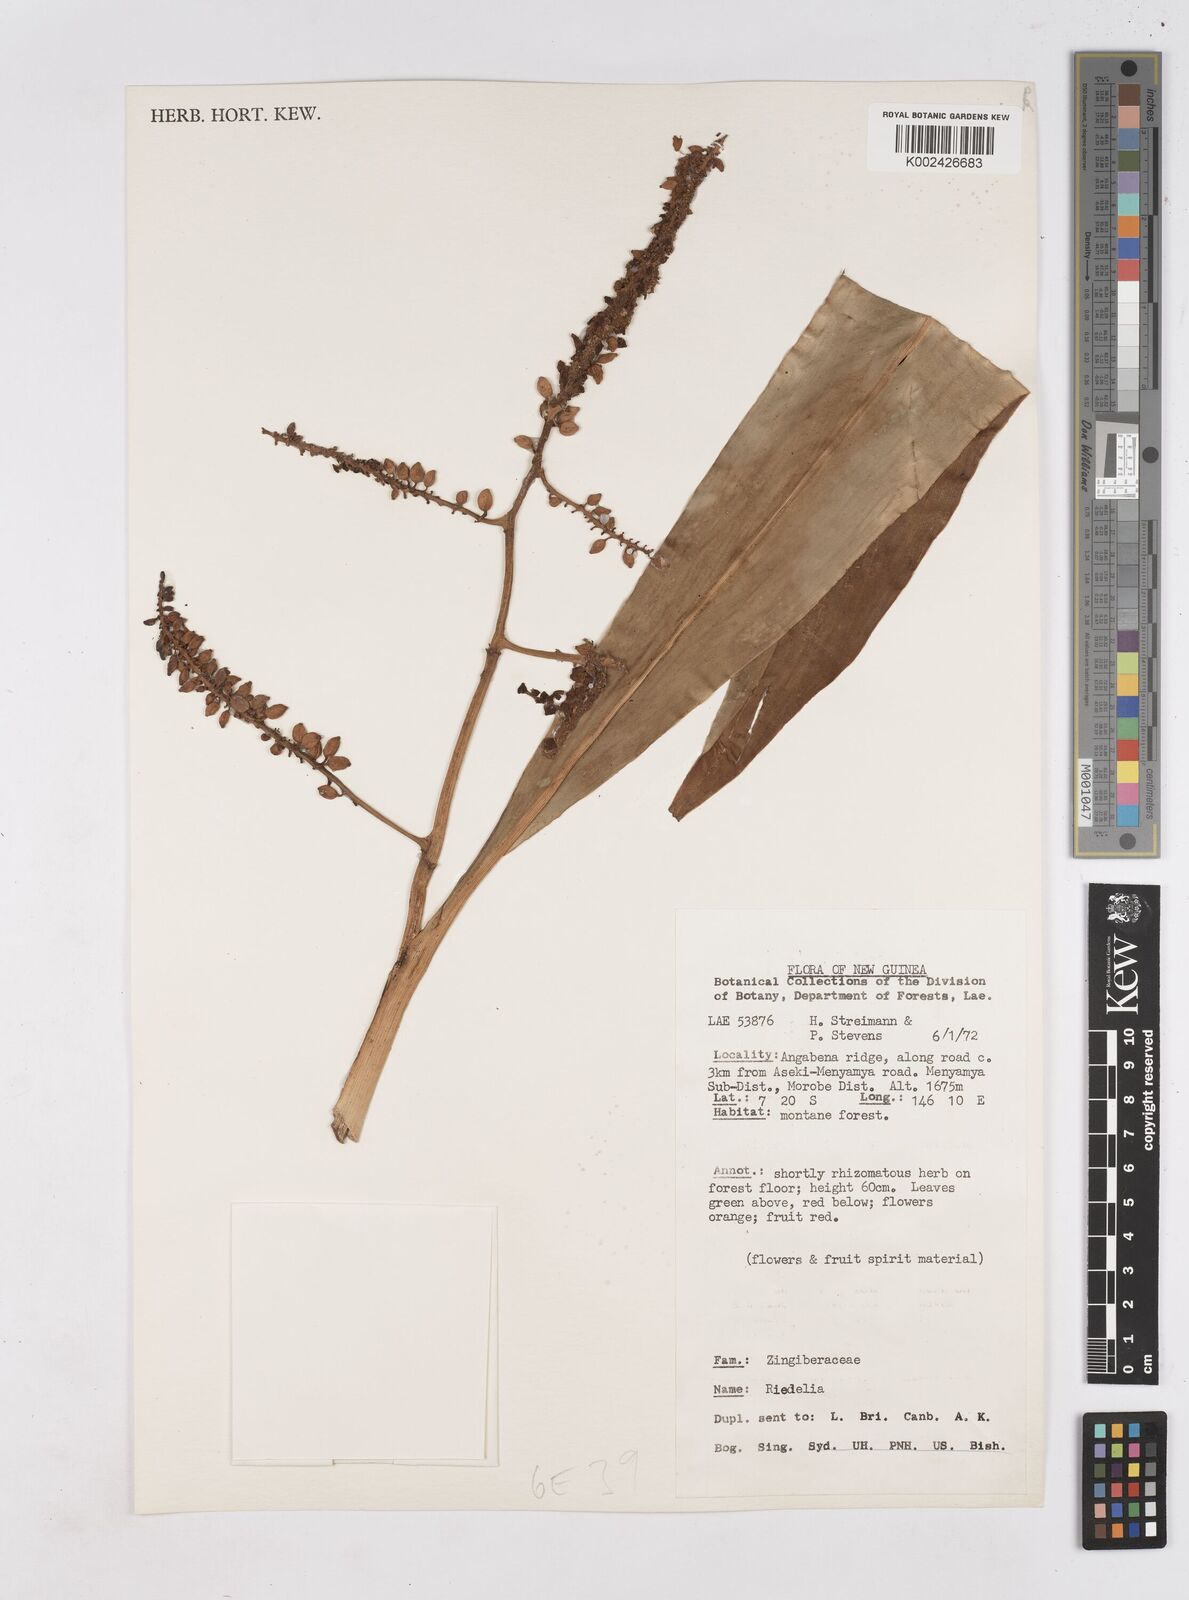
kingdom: Plantae
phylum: Tracheophyta
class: Liliopsida
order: Zingiberales
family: Zingiberaceae
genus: Riedelia
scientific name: Riedelia
